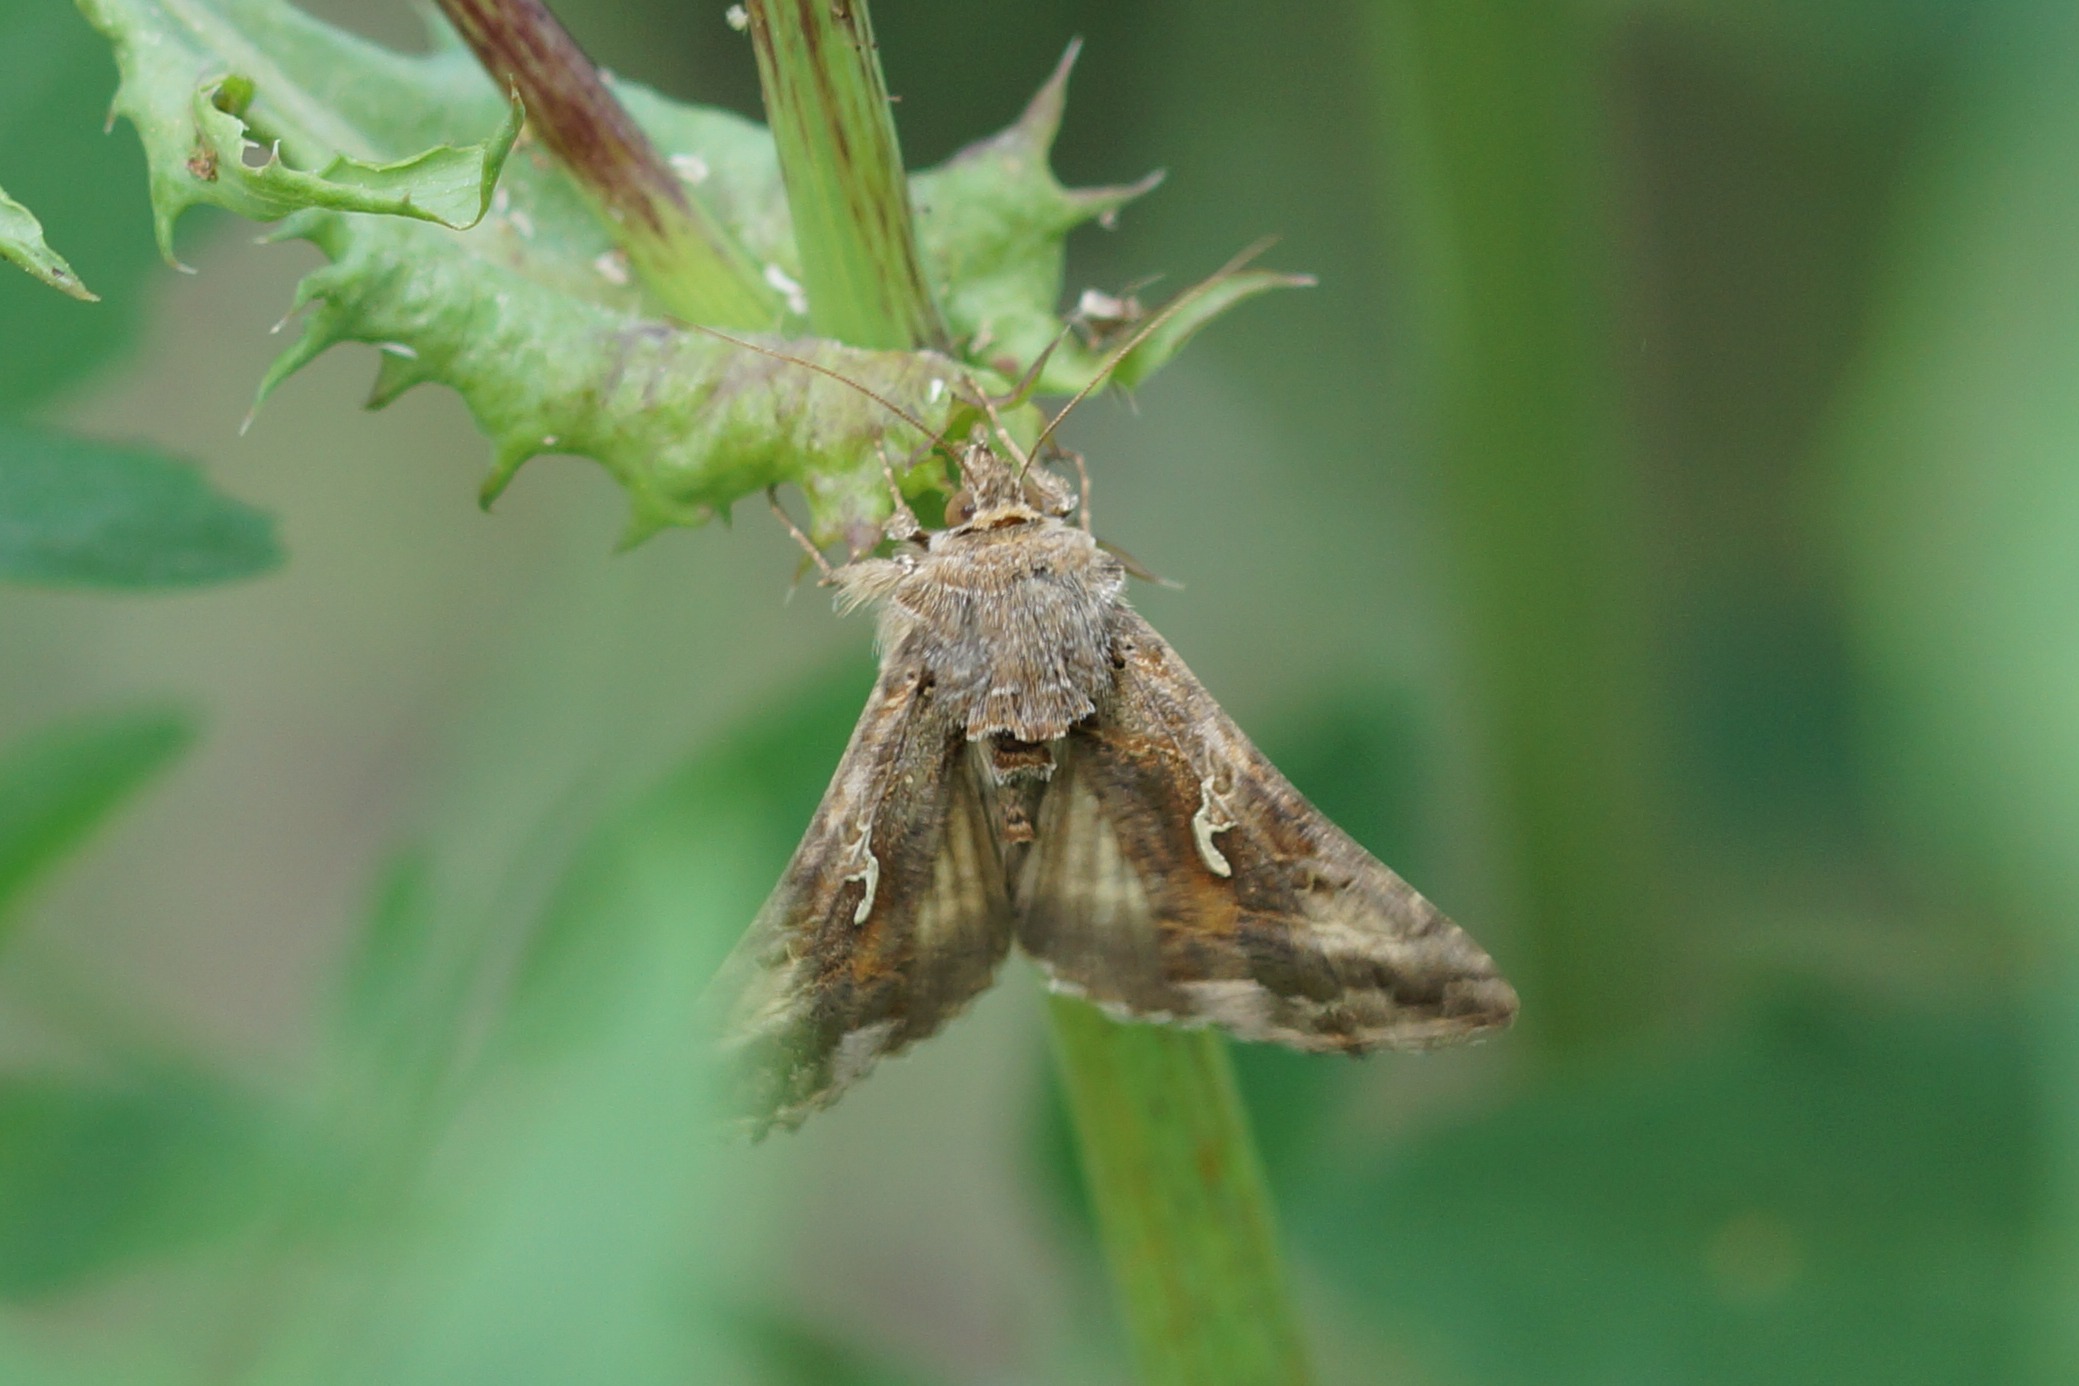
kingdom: Animalia
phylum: Arthropoda
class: Insecta
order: Lepidoptera
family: Noctuidae
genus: Autographa
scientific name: Autographa gamma
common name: Gammaugle
